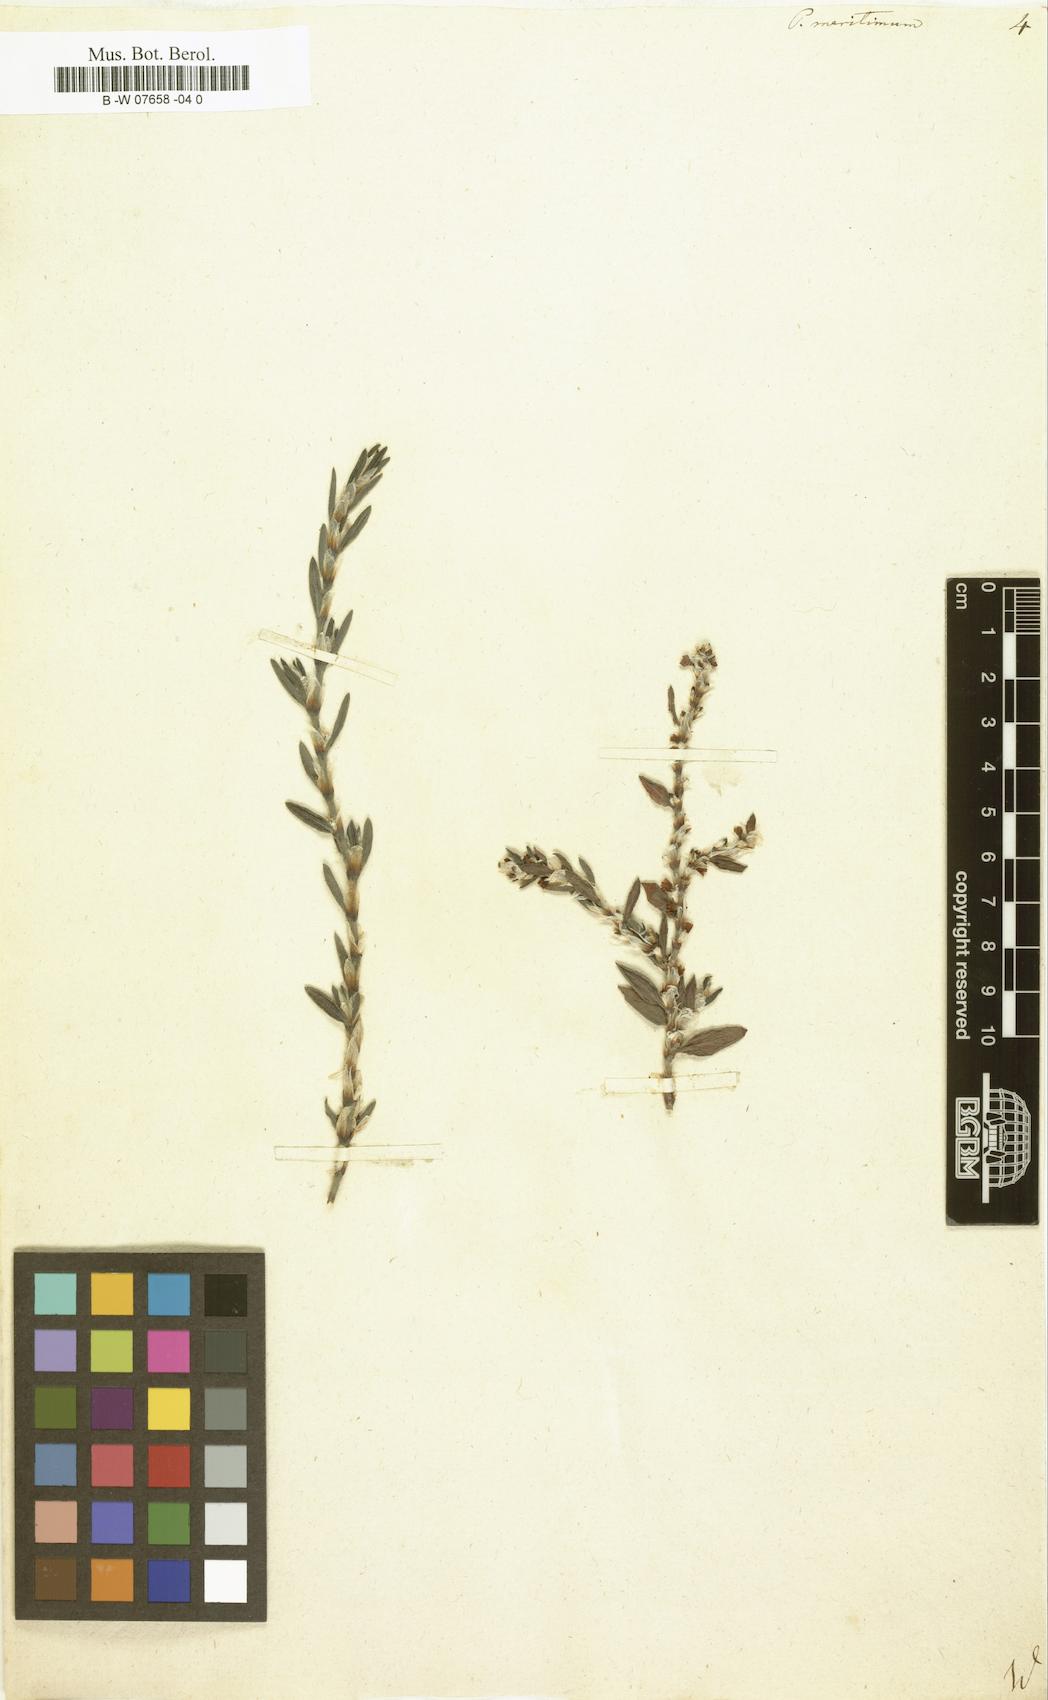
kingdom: Plantae
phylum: Tracheophyta
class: Magnoliopsida
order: Caryophyllales
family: Polygonaceae
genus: Polygonum
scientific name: Polygonum maritimum
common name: Sea knotgrass
